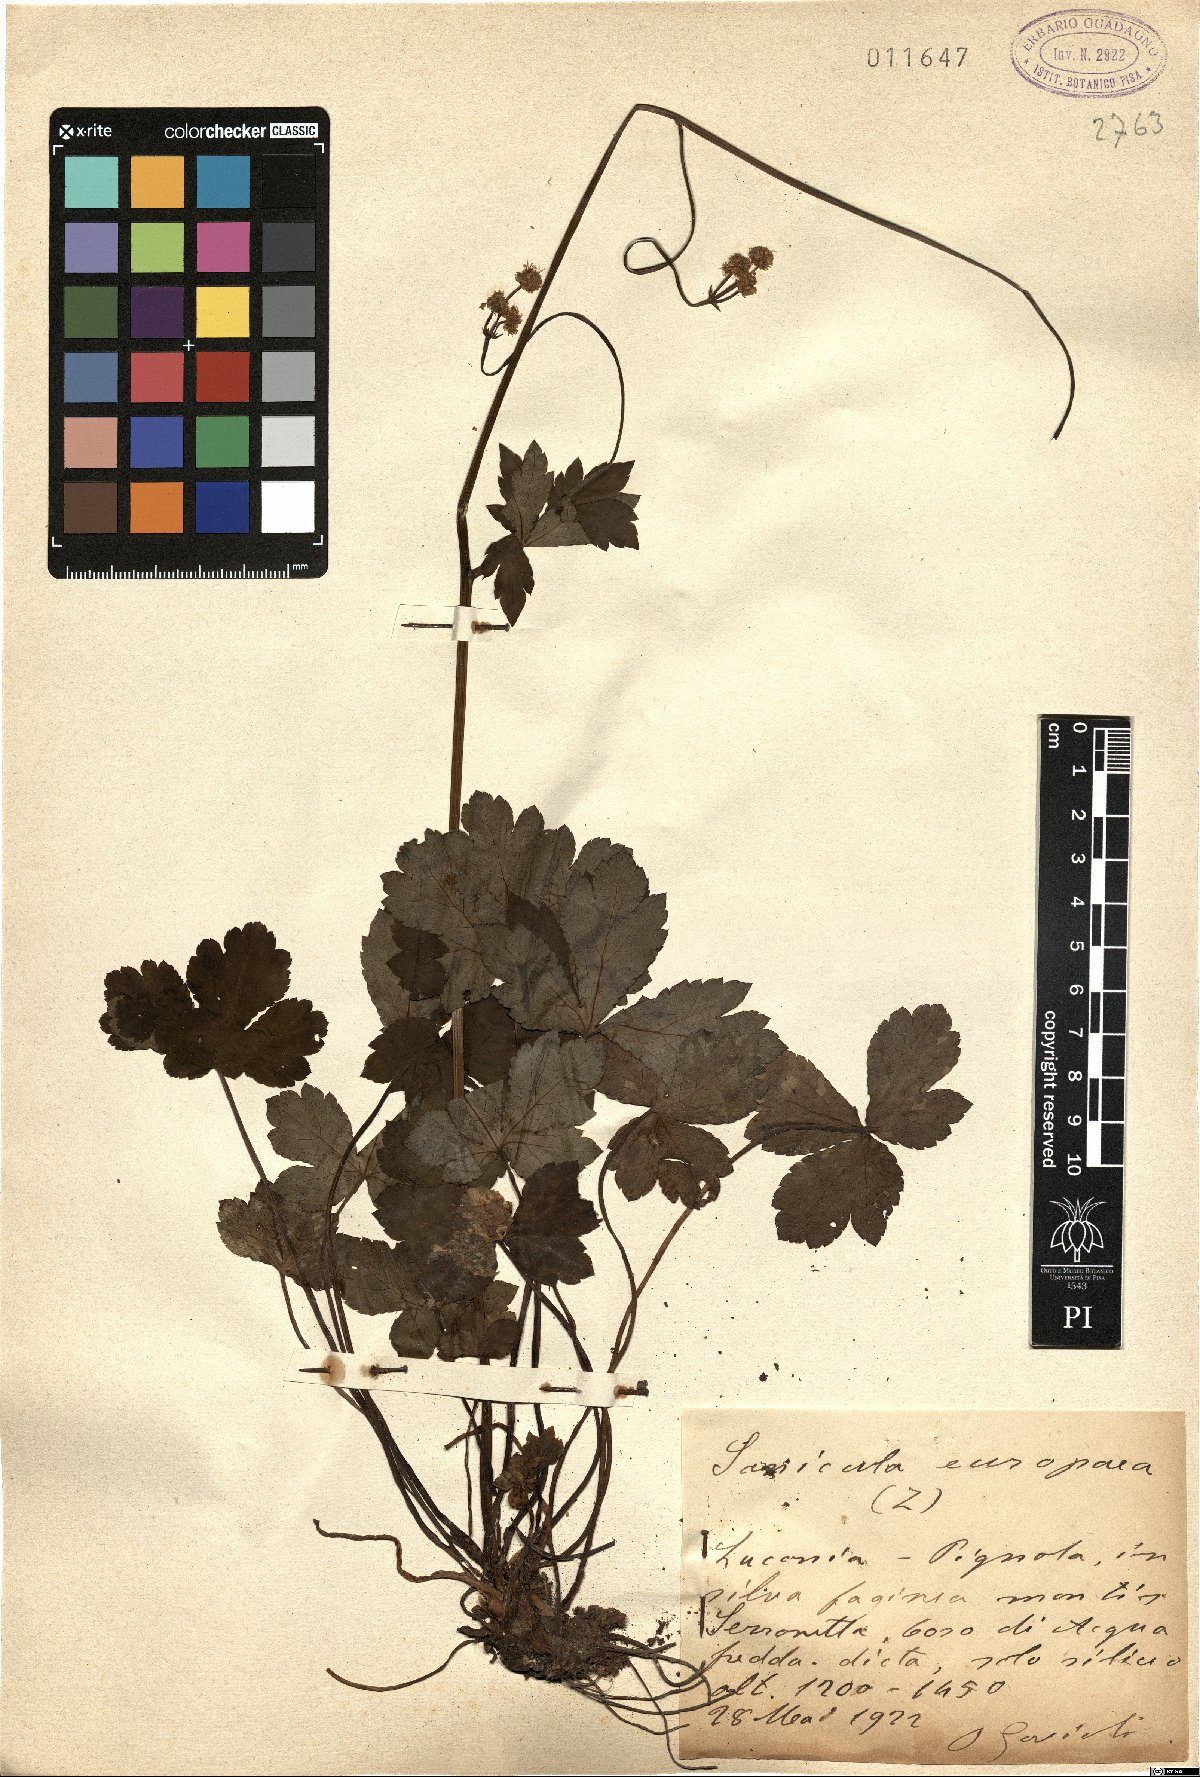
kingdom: Plantae
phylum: Tracheophyta
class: Magnoliopsida
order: Apiales
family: Apiaceae
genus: Sanicula
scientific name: Sanicula europaea
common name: Sanicle
